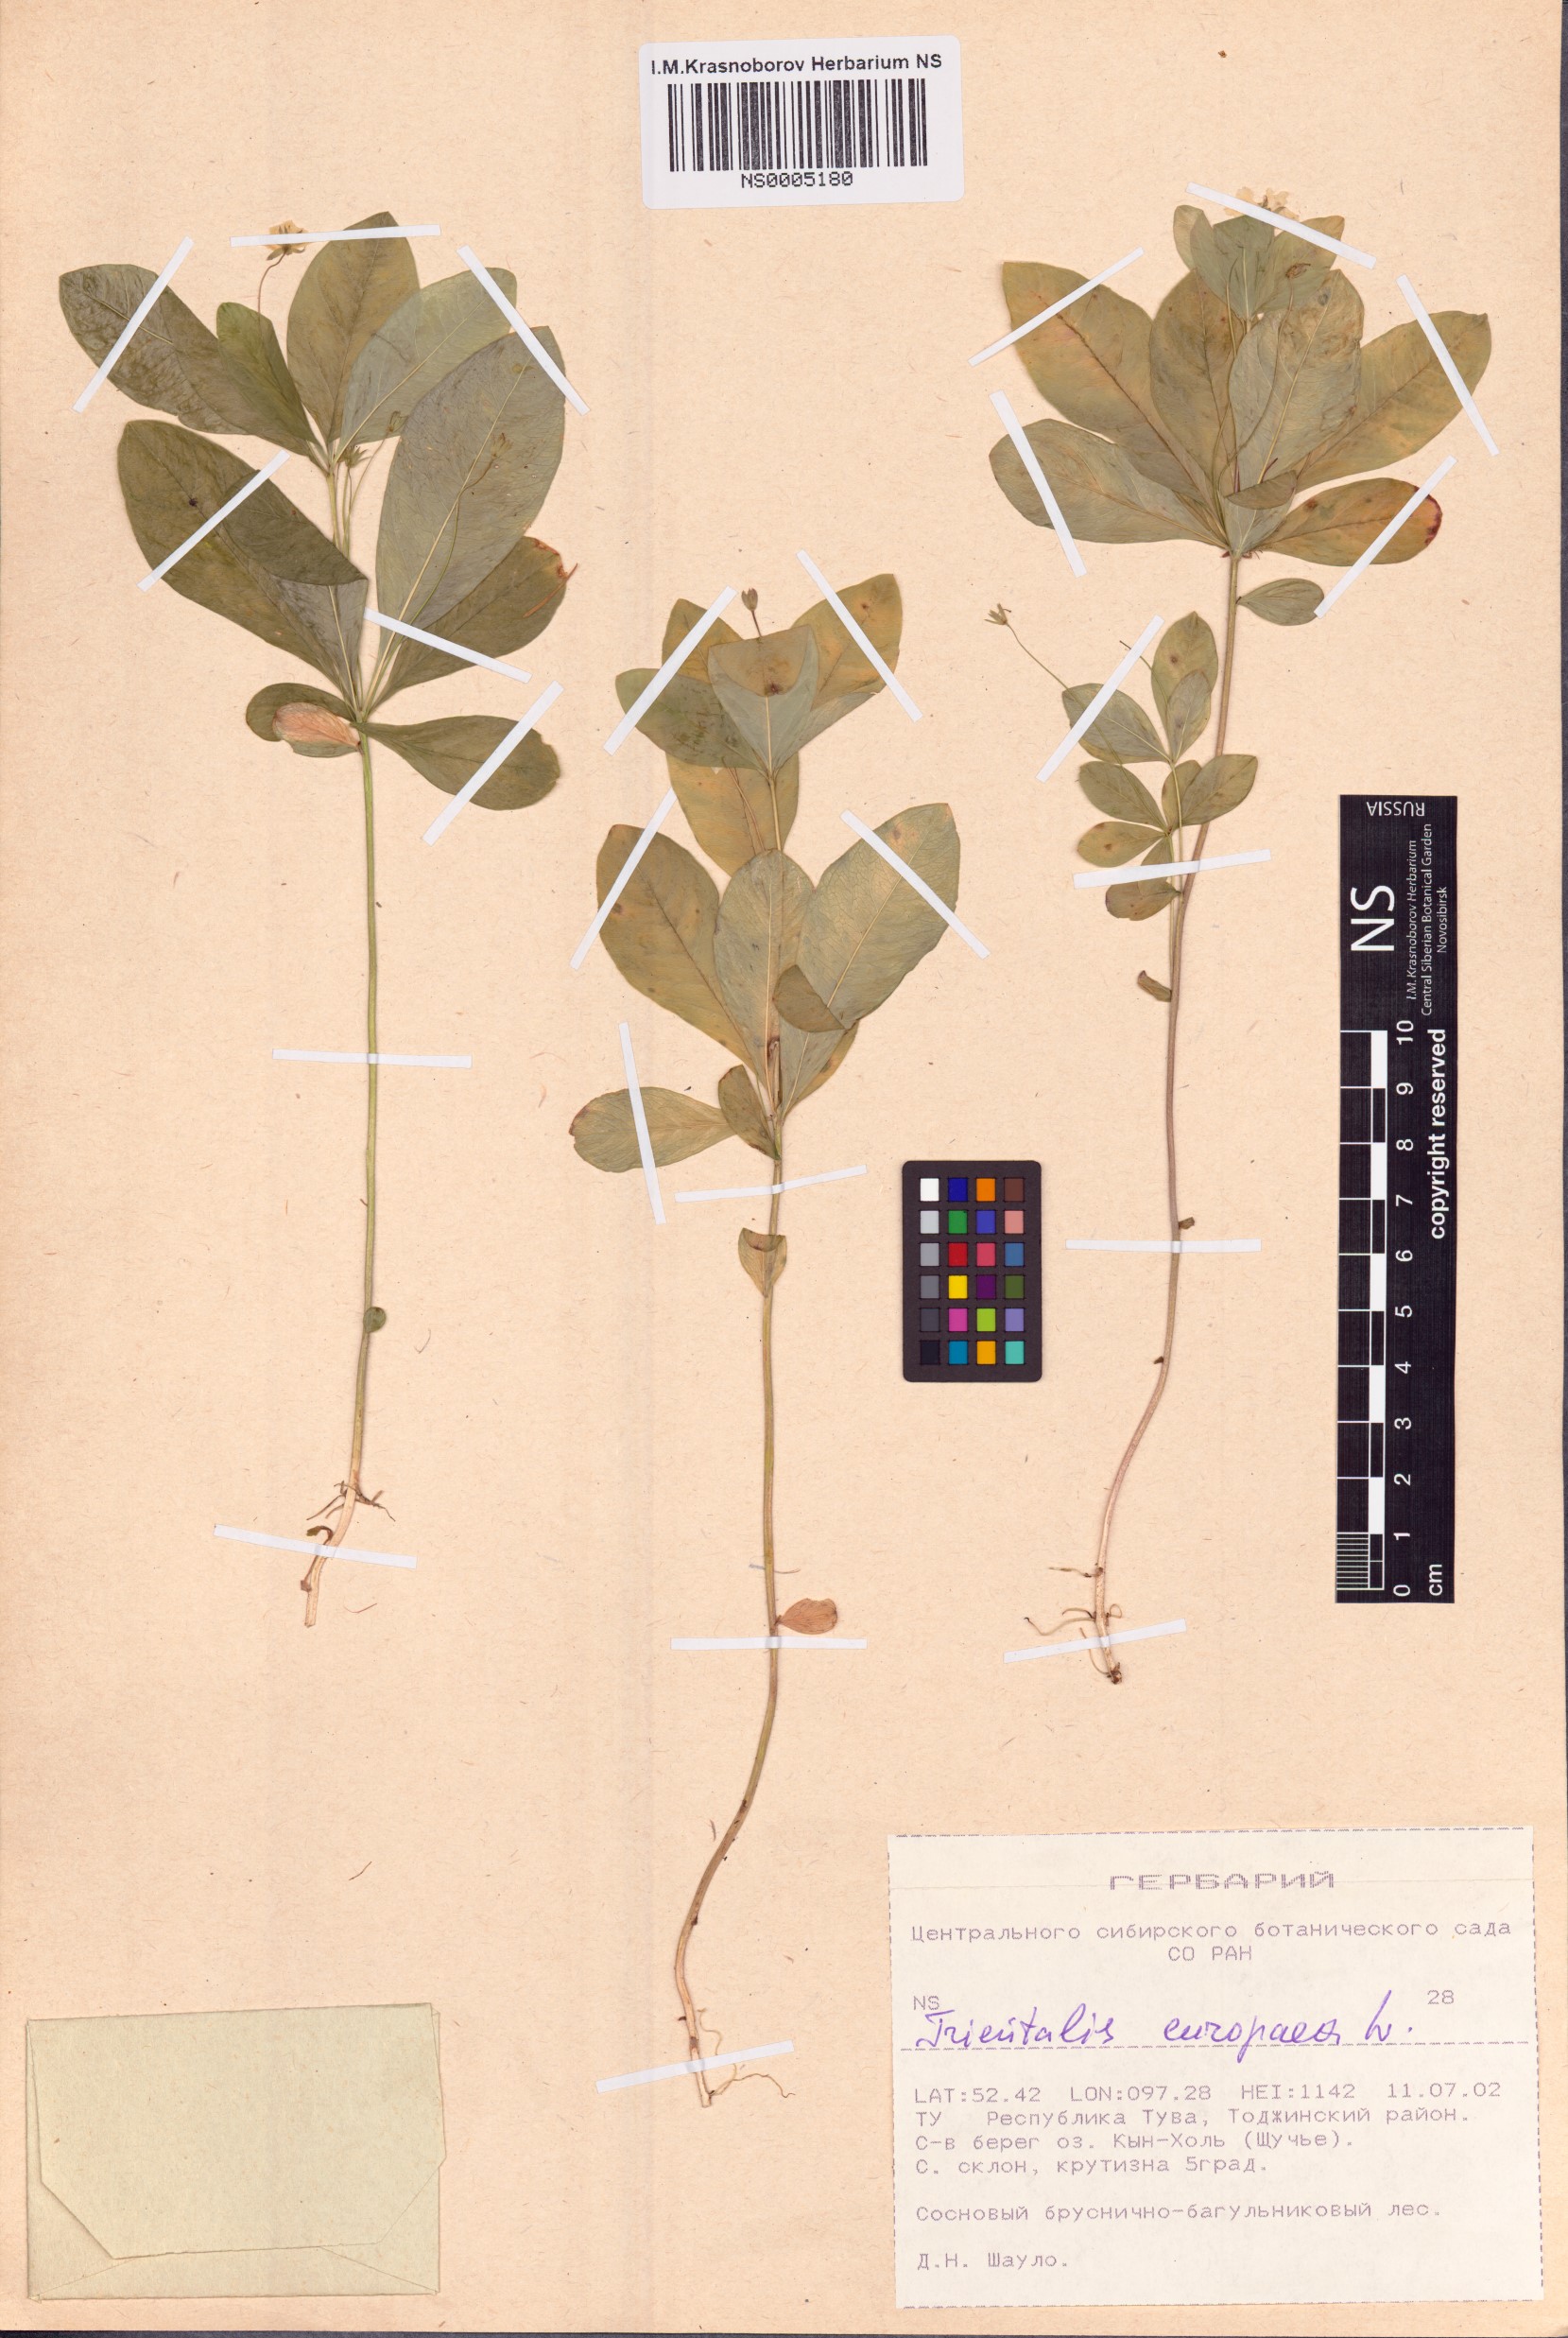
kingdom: Plantae
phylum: Tracheophyta
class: Magnoliopsida
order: Ericales
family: Primulaceae
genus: Lysimachia
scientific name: Lysimachia europaea
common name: Arctic starflower
